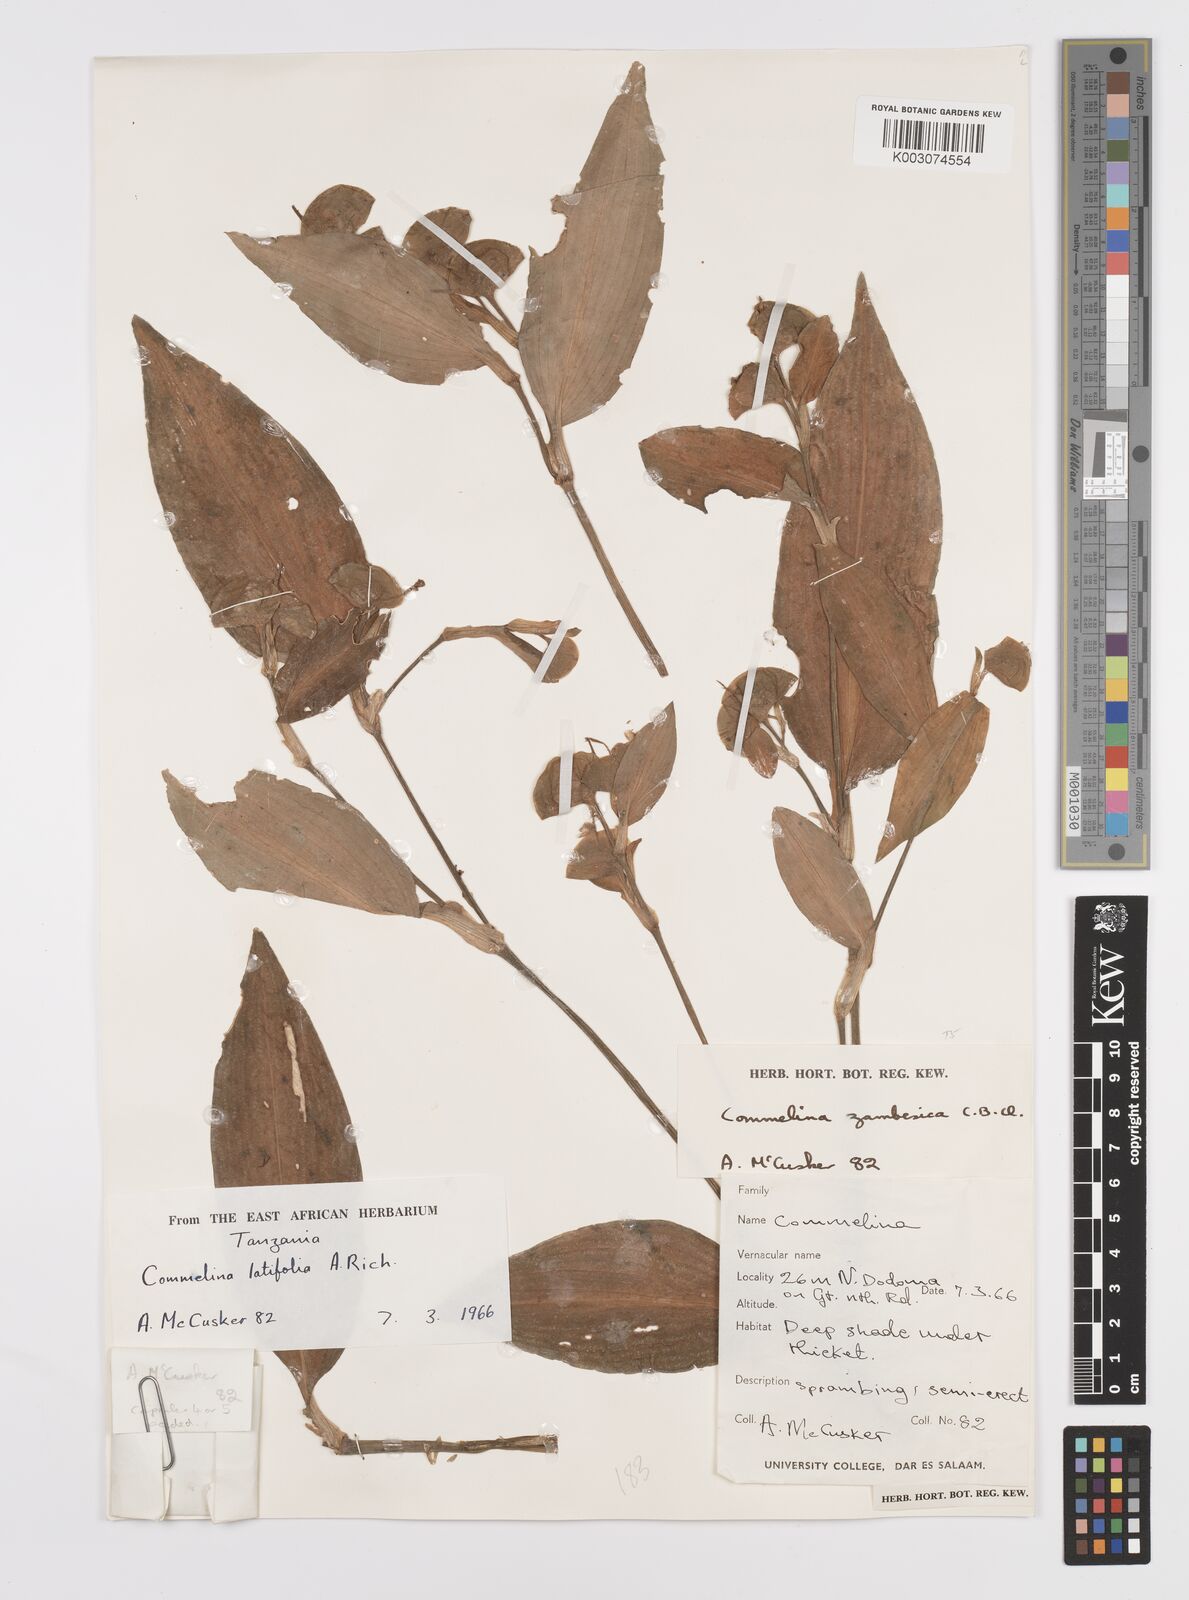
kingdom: Plantae
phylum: Tracheophyta
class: Liliopsida
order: Commelinales
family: Commelinaceae
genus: Commelina
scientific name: Commelina zambesica
